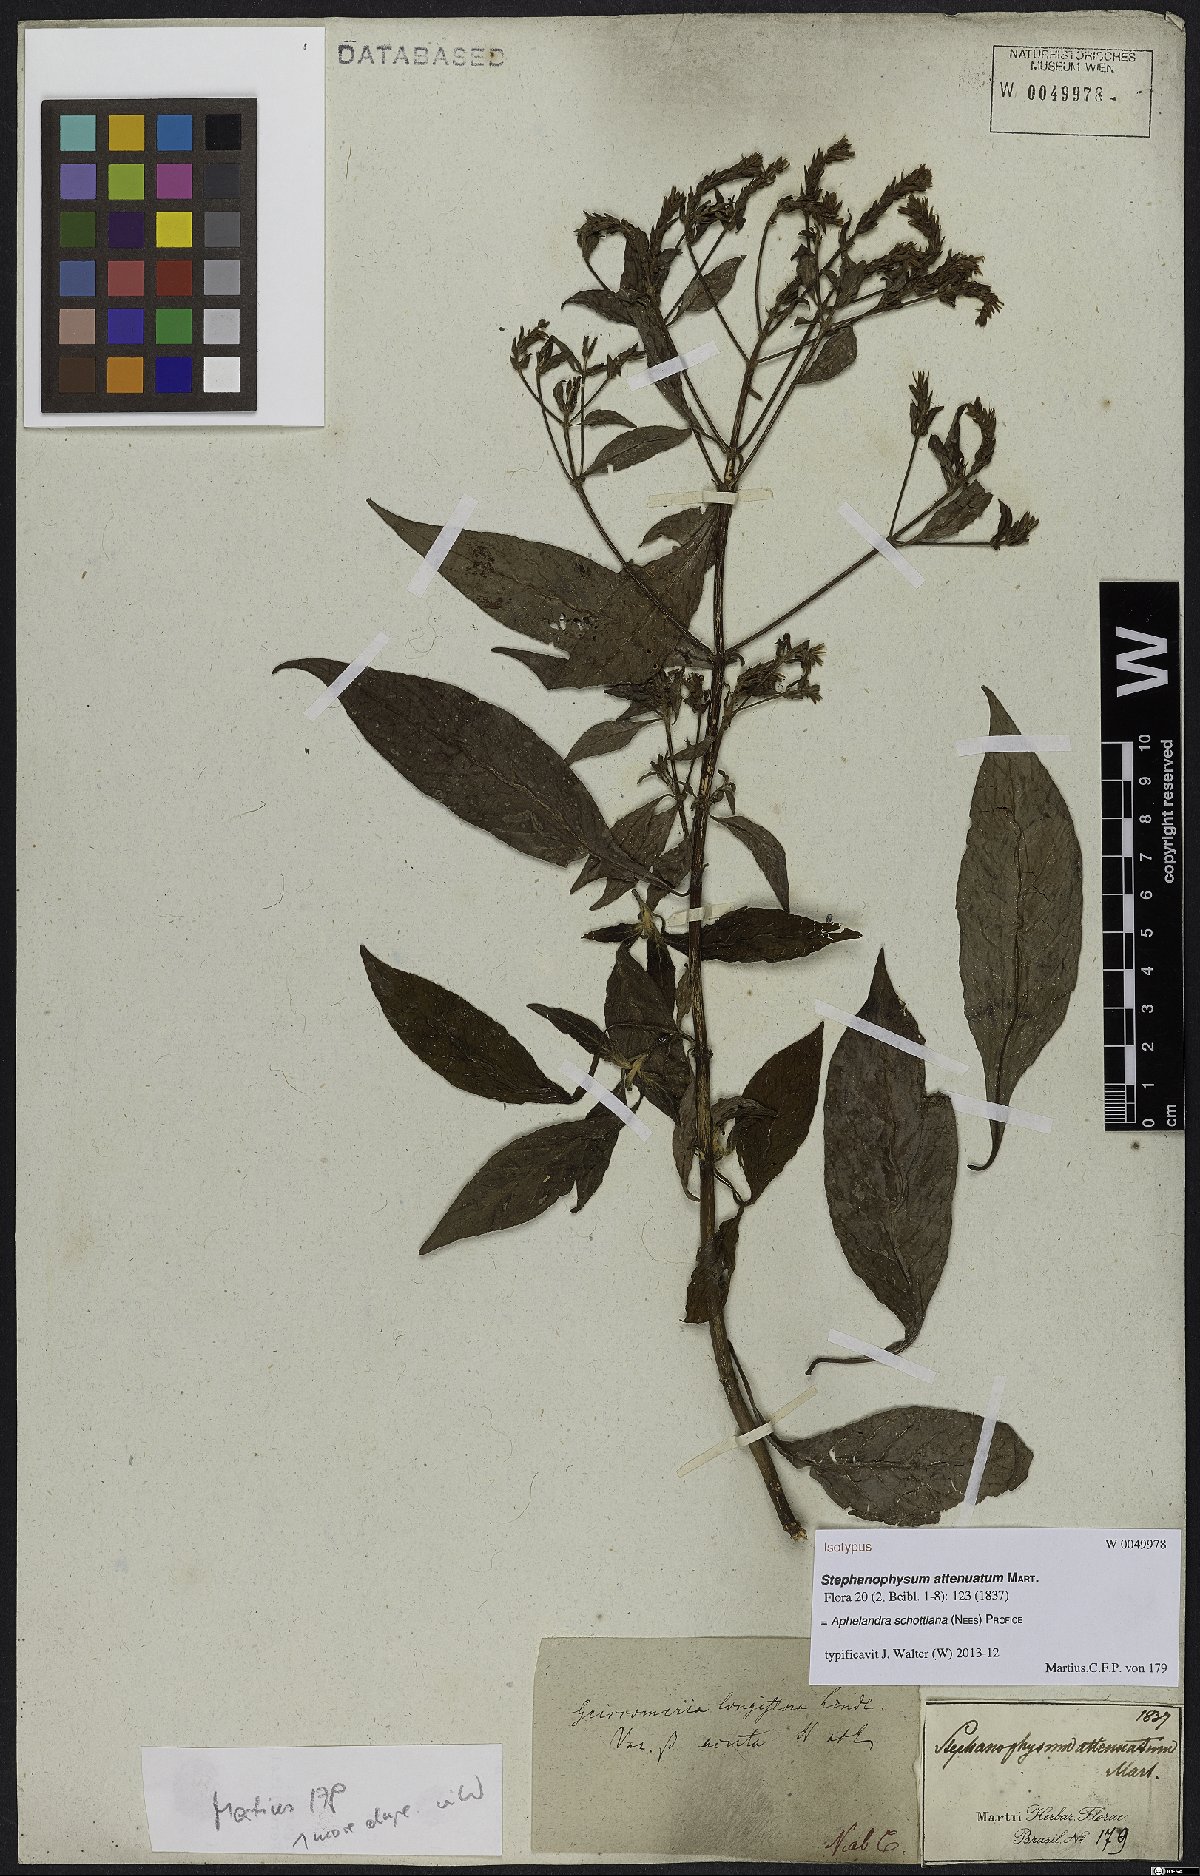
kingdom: Plantae
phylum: Tracheophyta
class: Magnoliopsida
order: Lamiales
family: Acanthaceae
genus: Aphelandra
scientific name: Aphelandra schottiana
